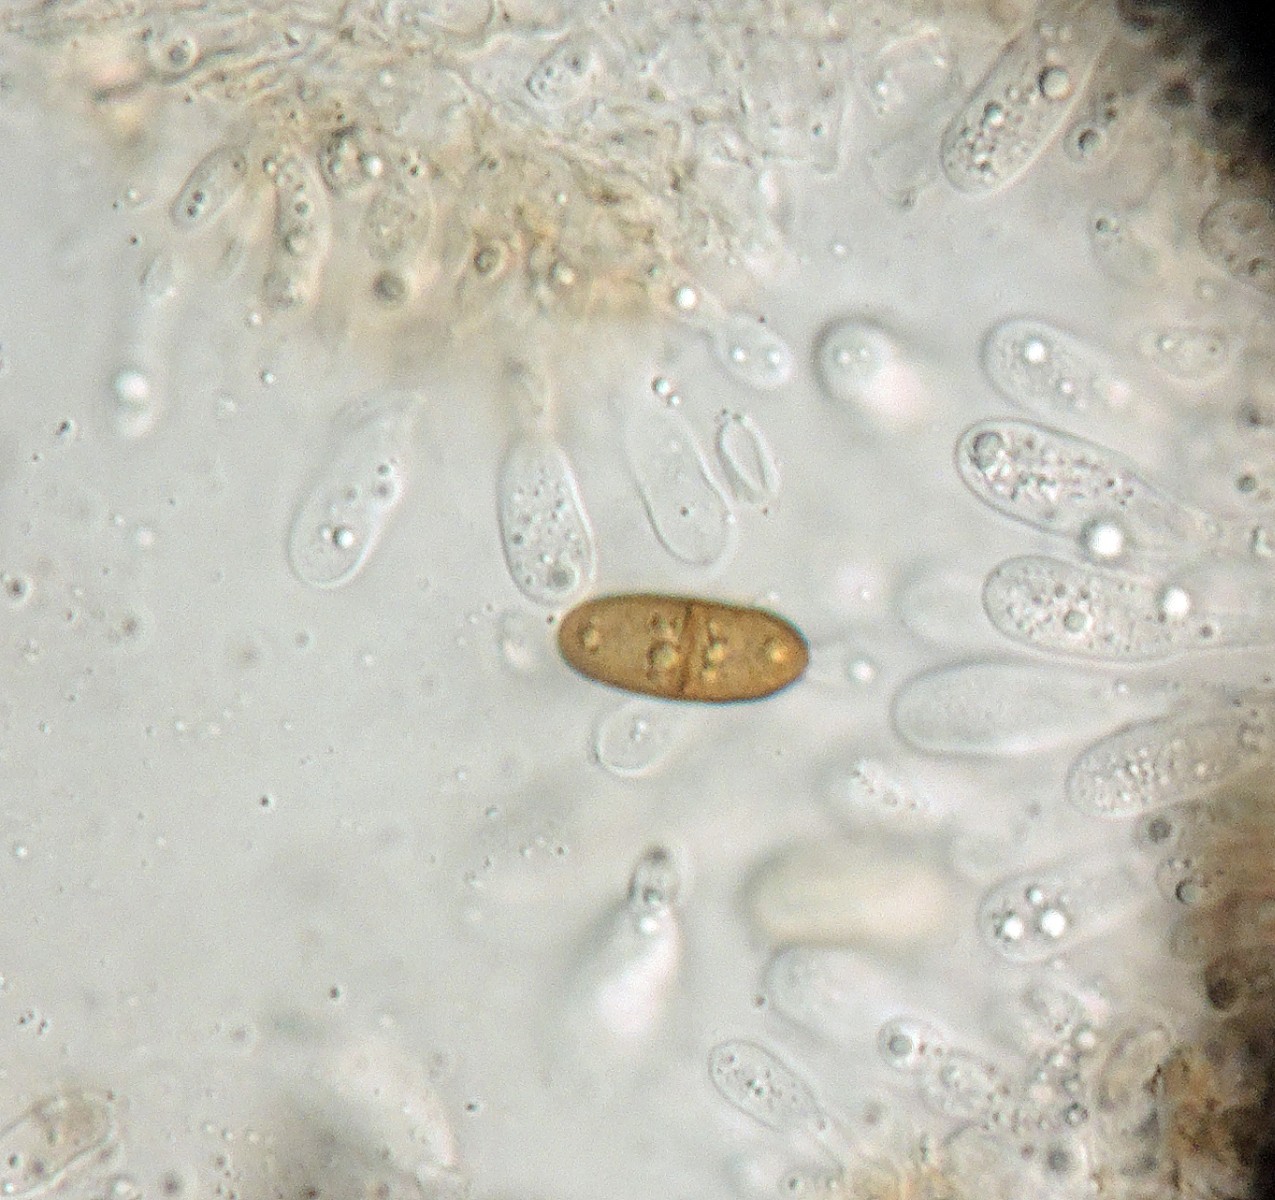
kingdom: Fungi
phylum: Ascomycota
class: Dothideomycetes
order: Botryosphaeriales
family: Botryosphaeriaceae
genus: Diplodia
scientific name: Diplodia oudemansii
